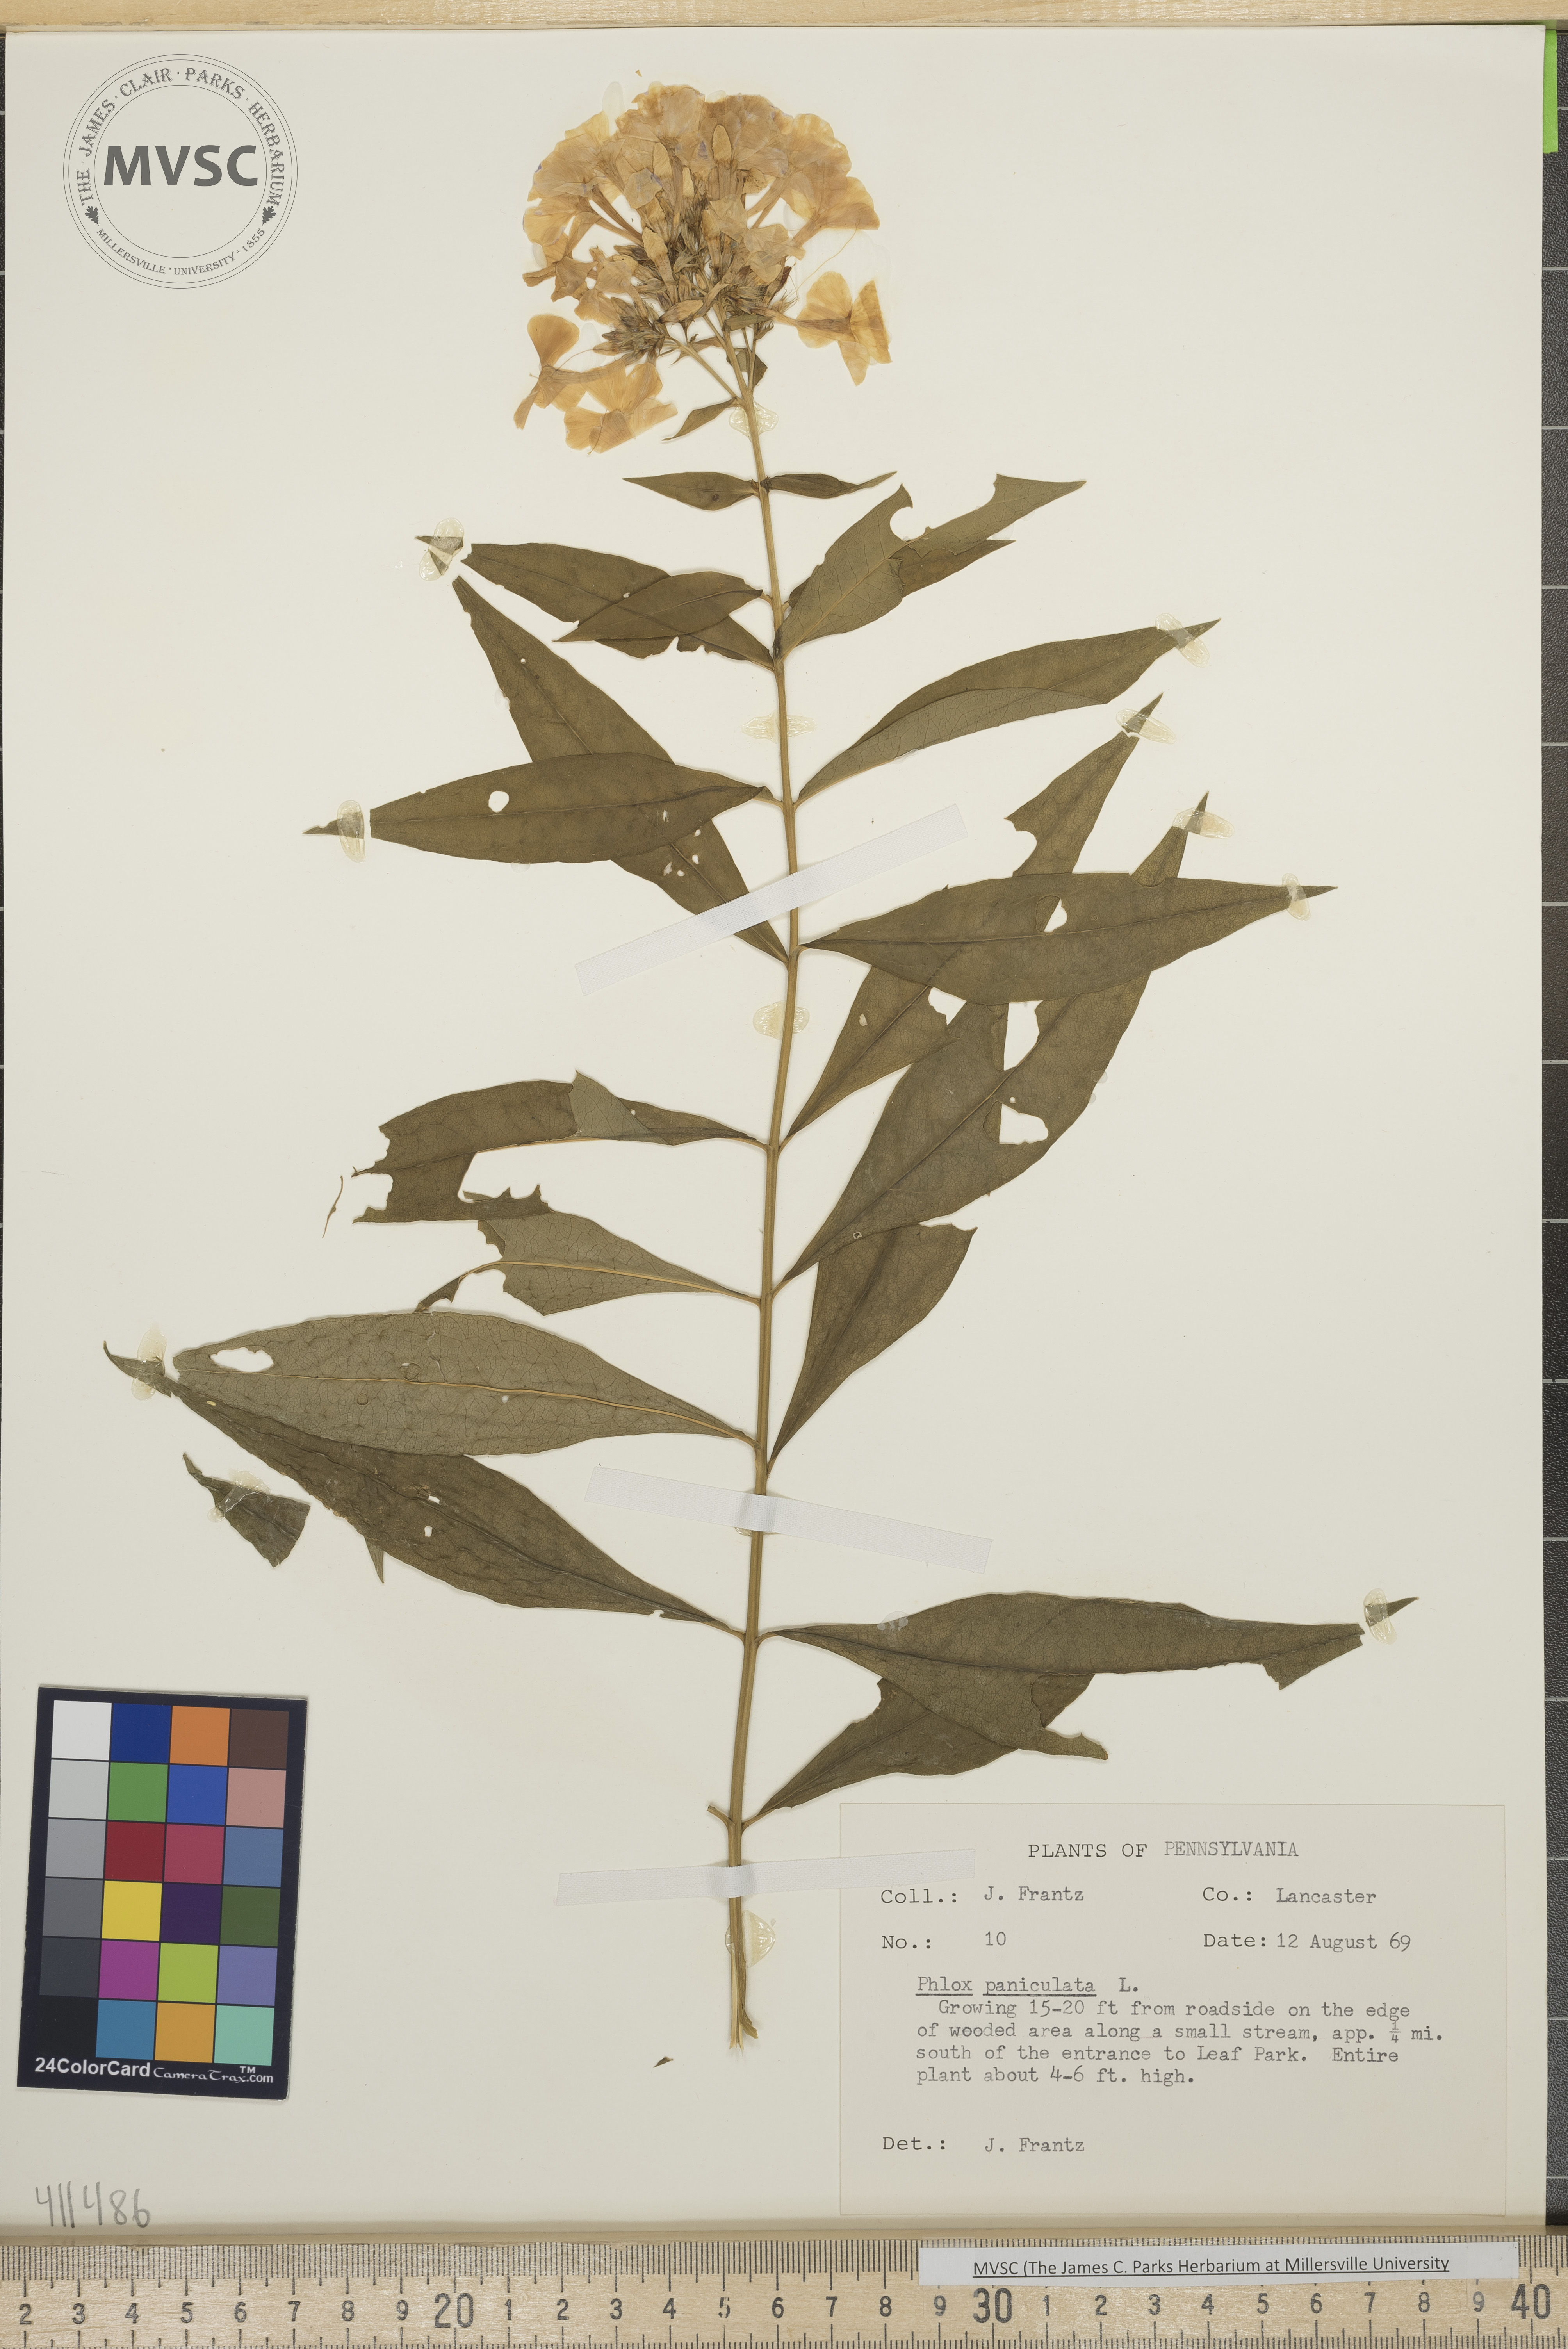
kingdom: Plantae
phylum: Tracheophyta
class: Magnoliopsida
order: Ericales
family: Polemoniaceae
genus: Phlox
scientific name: Phlox paniculata
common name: Fall phlox
